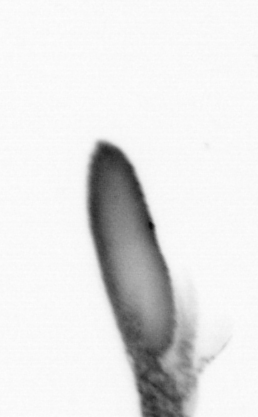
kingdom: Animalia
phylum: Arthropoda
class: Copepoda
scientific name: Copepoda
